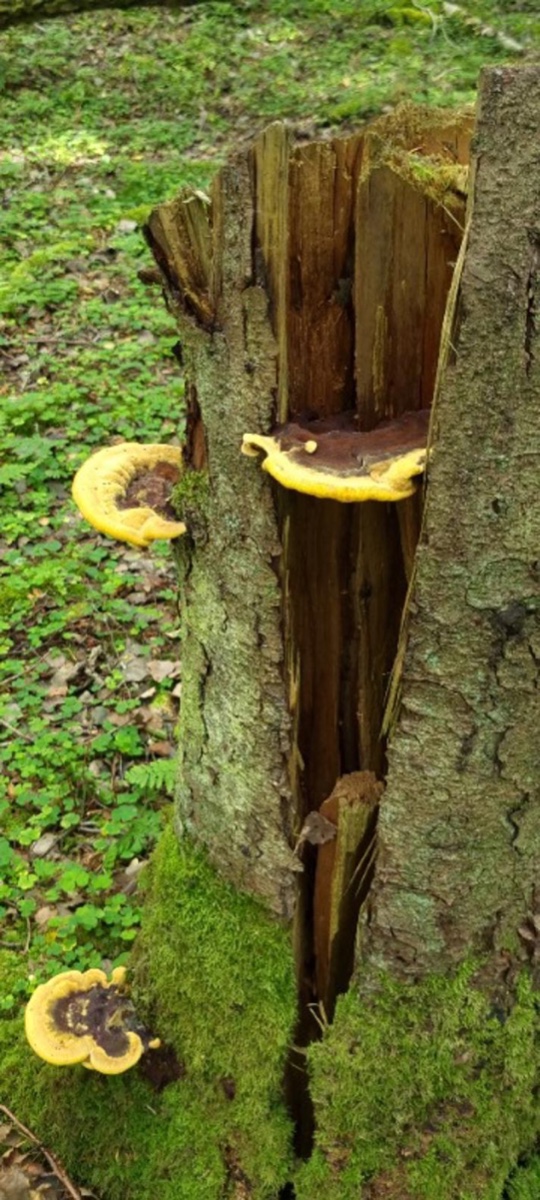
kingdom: Fungi
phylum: Basidiomycota
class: Agaricomycetes
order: Polyporales
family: Laetiporaceae
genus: Phaeolus
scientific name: Phaeolus schweinitzii
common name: brunporesvamp
